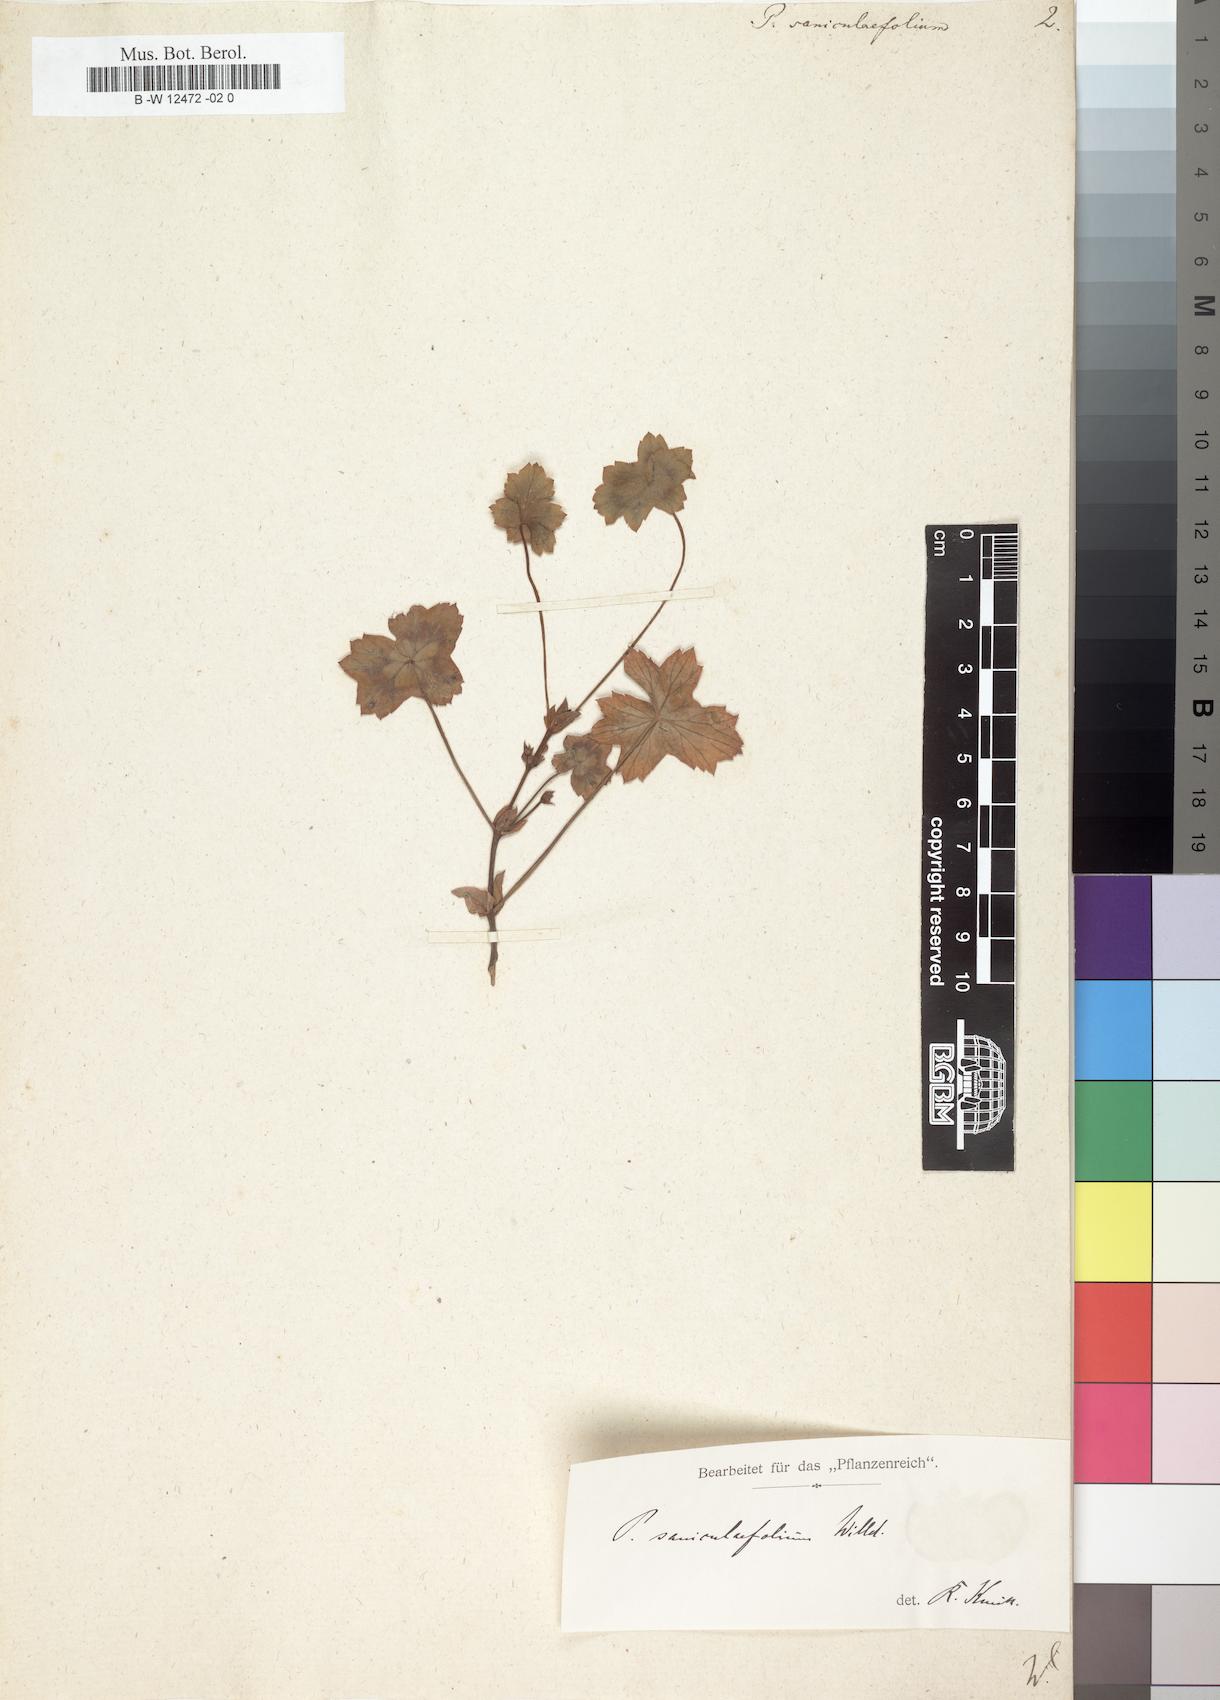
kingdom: Plantae
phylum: Tracheophyta
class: Magnoliopsida
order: Geraniales
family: Geraniaceae
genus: Pelargonium
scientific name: Pelargonium tabulare
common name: Table mountain pelargonium
